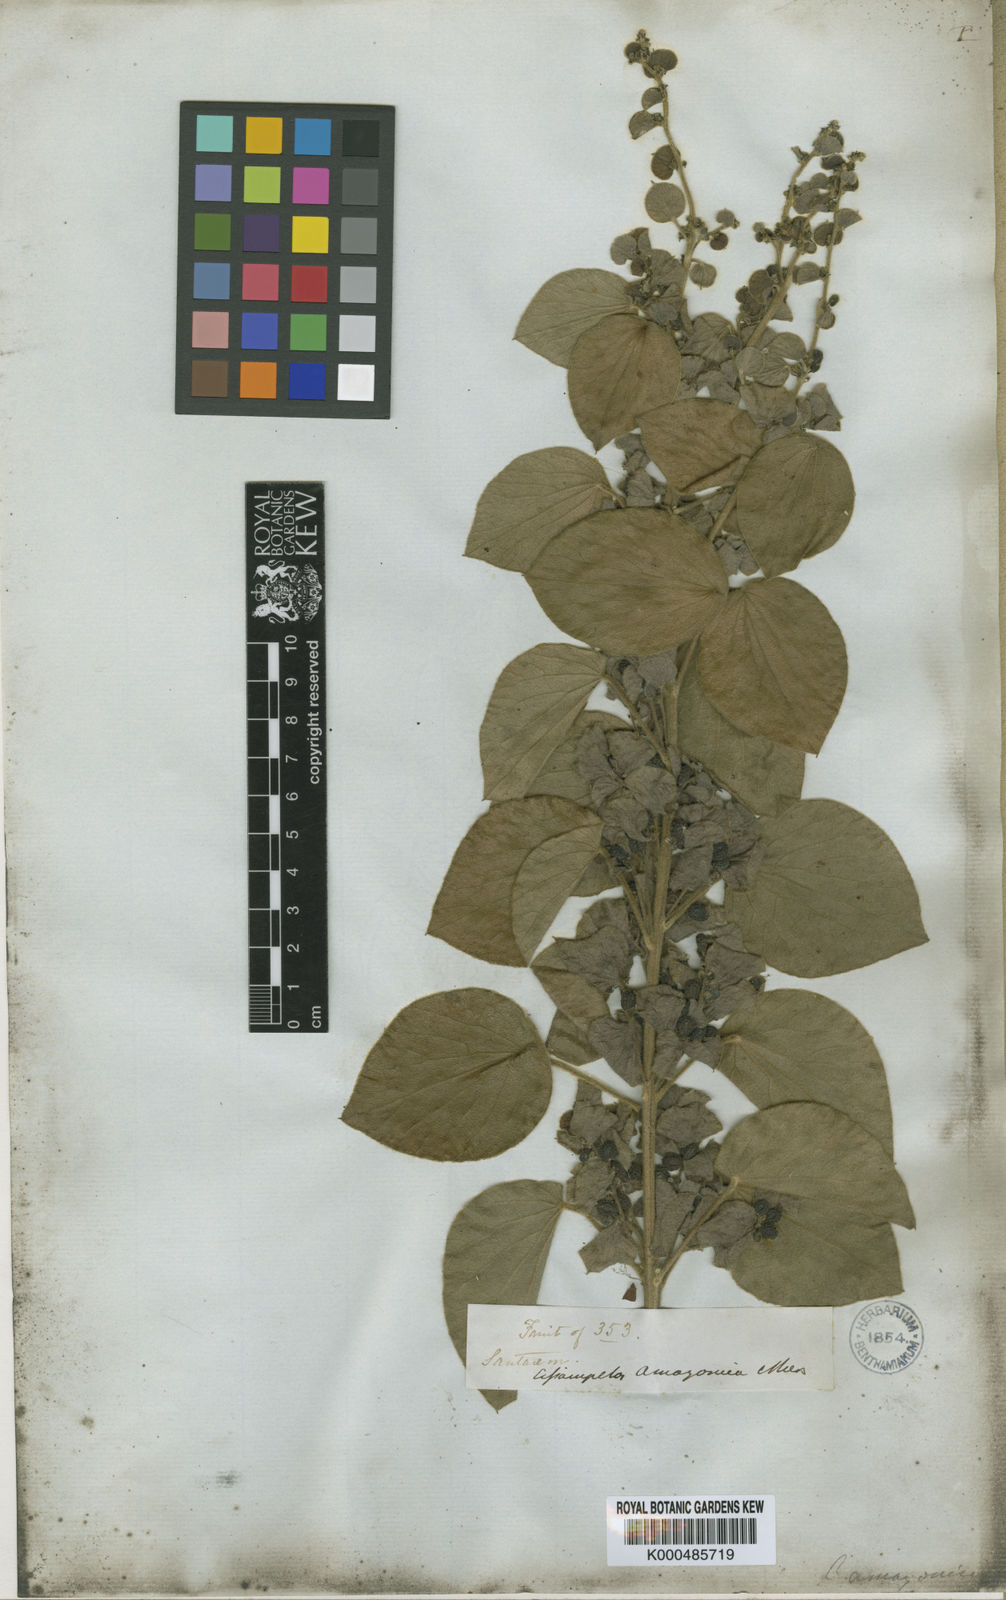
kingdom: Plantae
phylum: Tracheophyta
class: Magnoliopsida
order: Ranunculales
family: Menispermaceae
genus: Cissampelos
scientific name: Cissampelos ovalifolia
